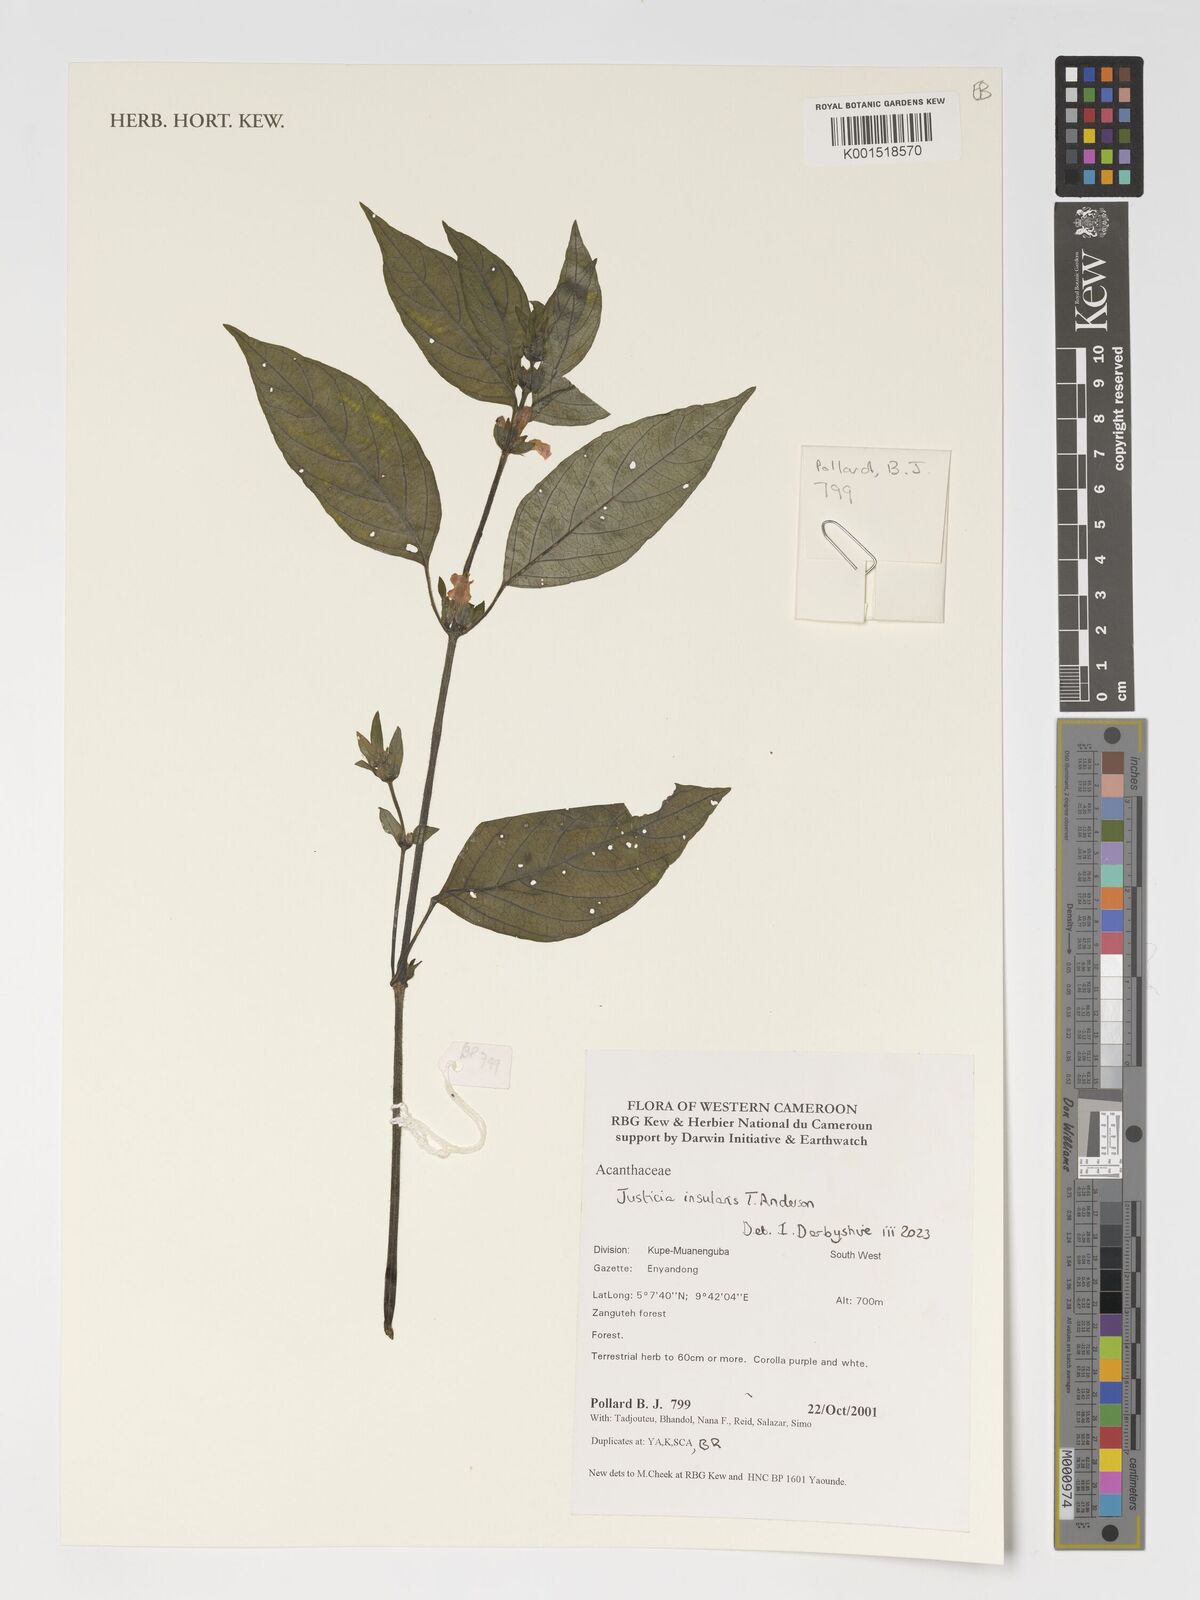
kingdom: Plantae
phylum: Tracheophyta
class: Magnoliopsida
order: Lamiales
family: Acanthaceae
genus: Justicia
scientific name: Justicia insularis
